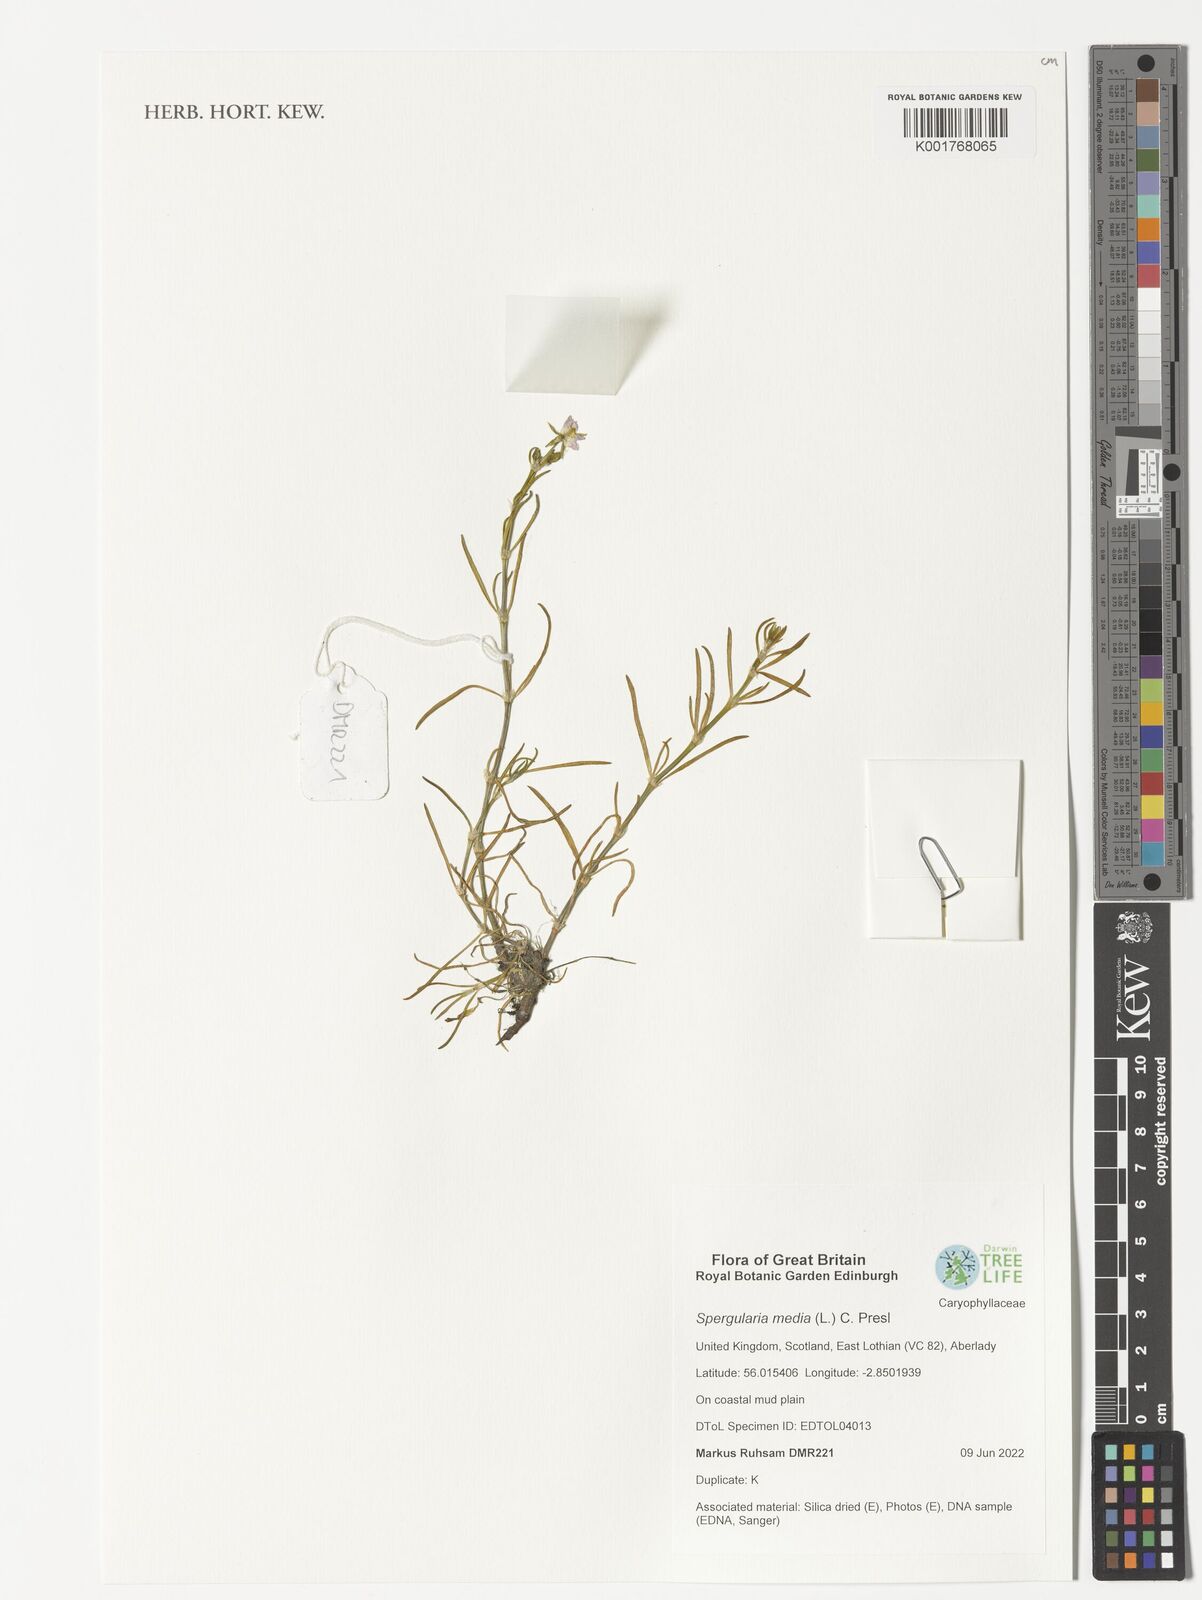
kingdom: Plantae
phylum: Tracheophyta
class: Magnoliopsida
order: Caryophyllales
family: Caryophyllaceae
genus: Spergularia
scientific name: Spergularia media
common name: Greater sea-spurrey
